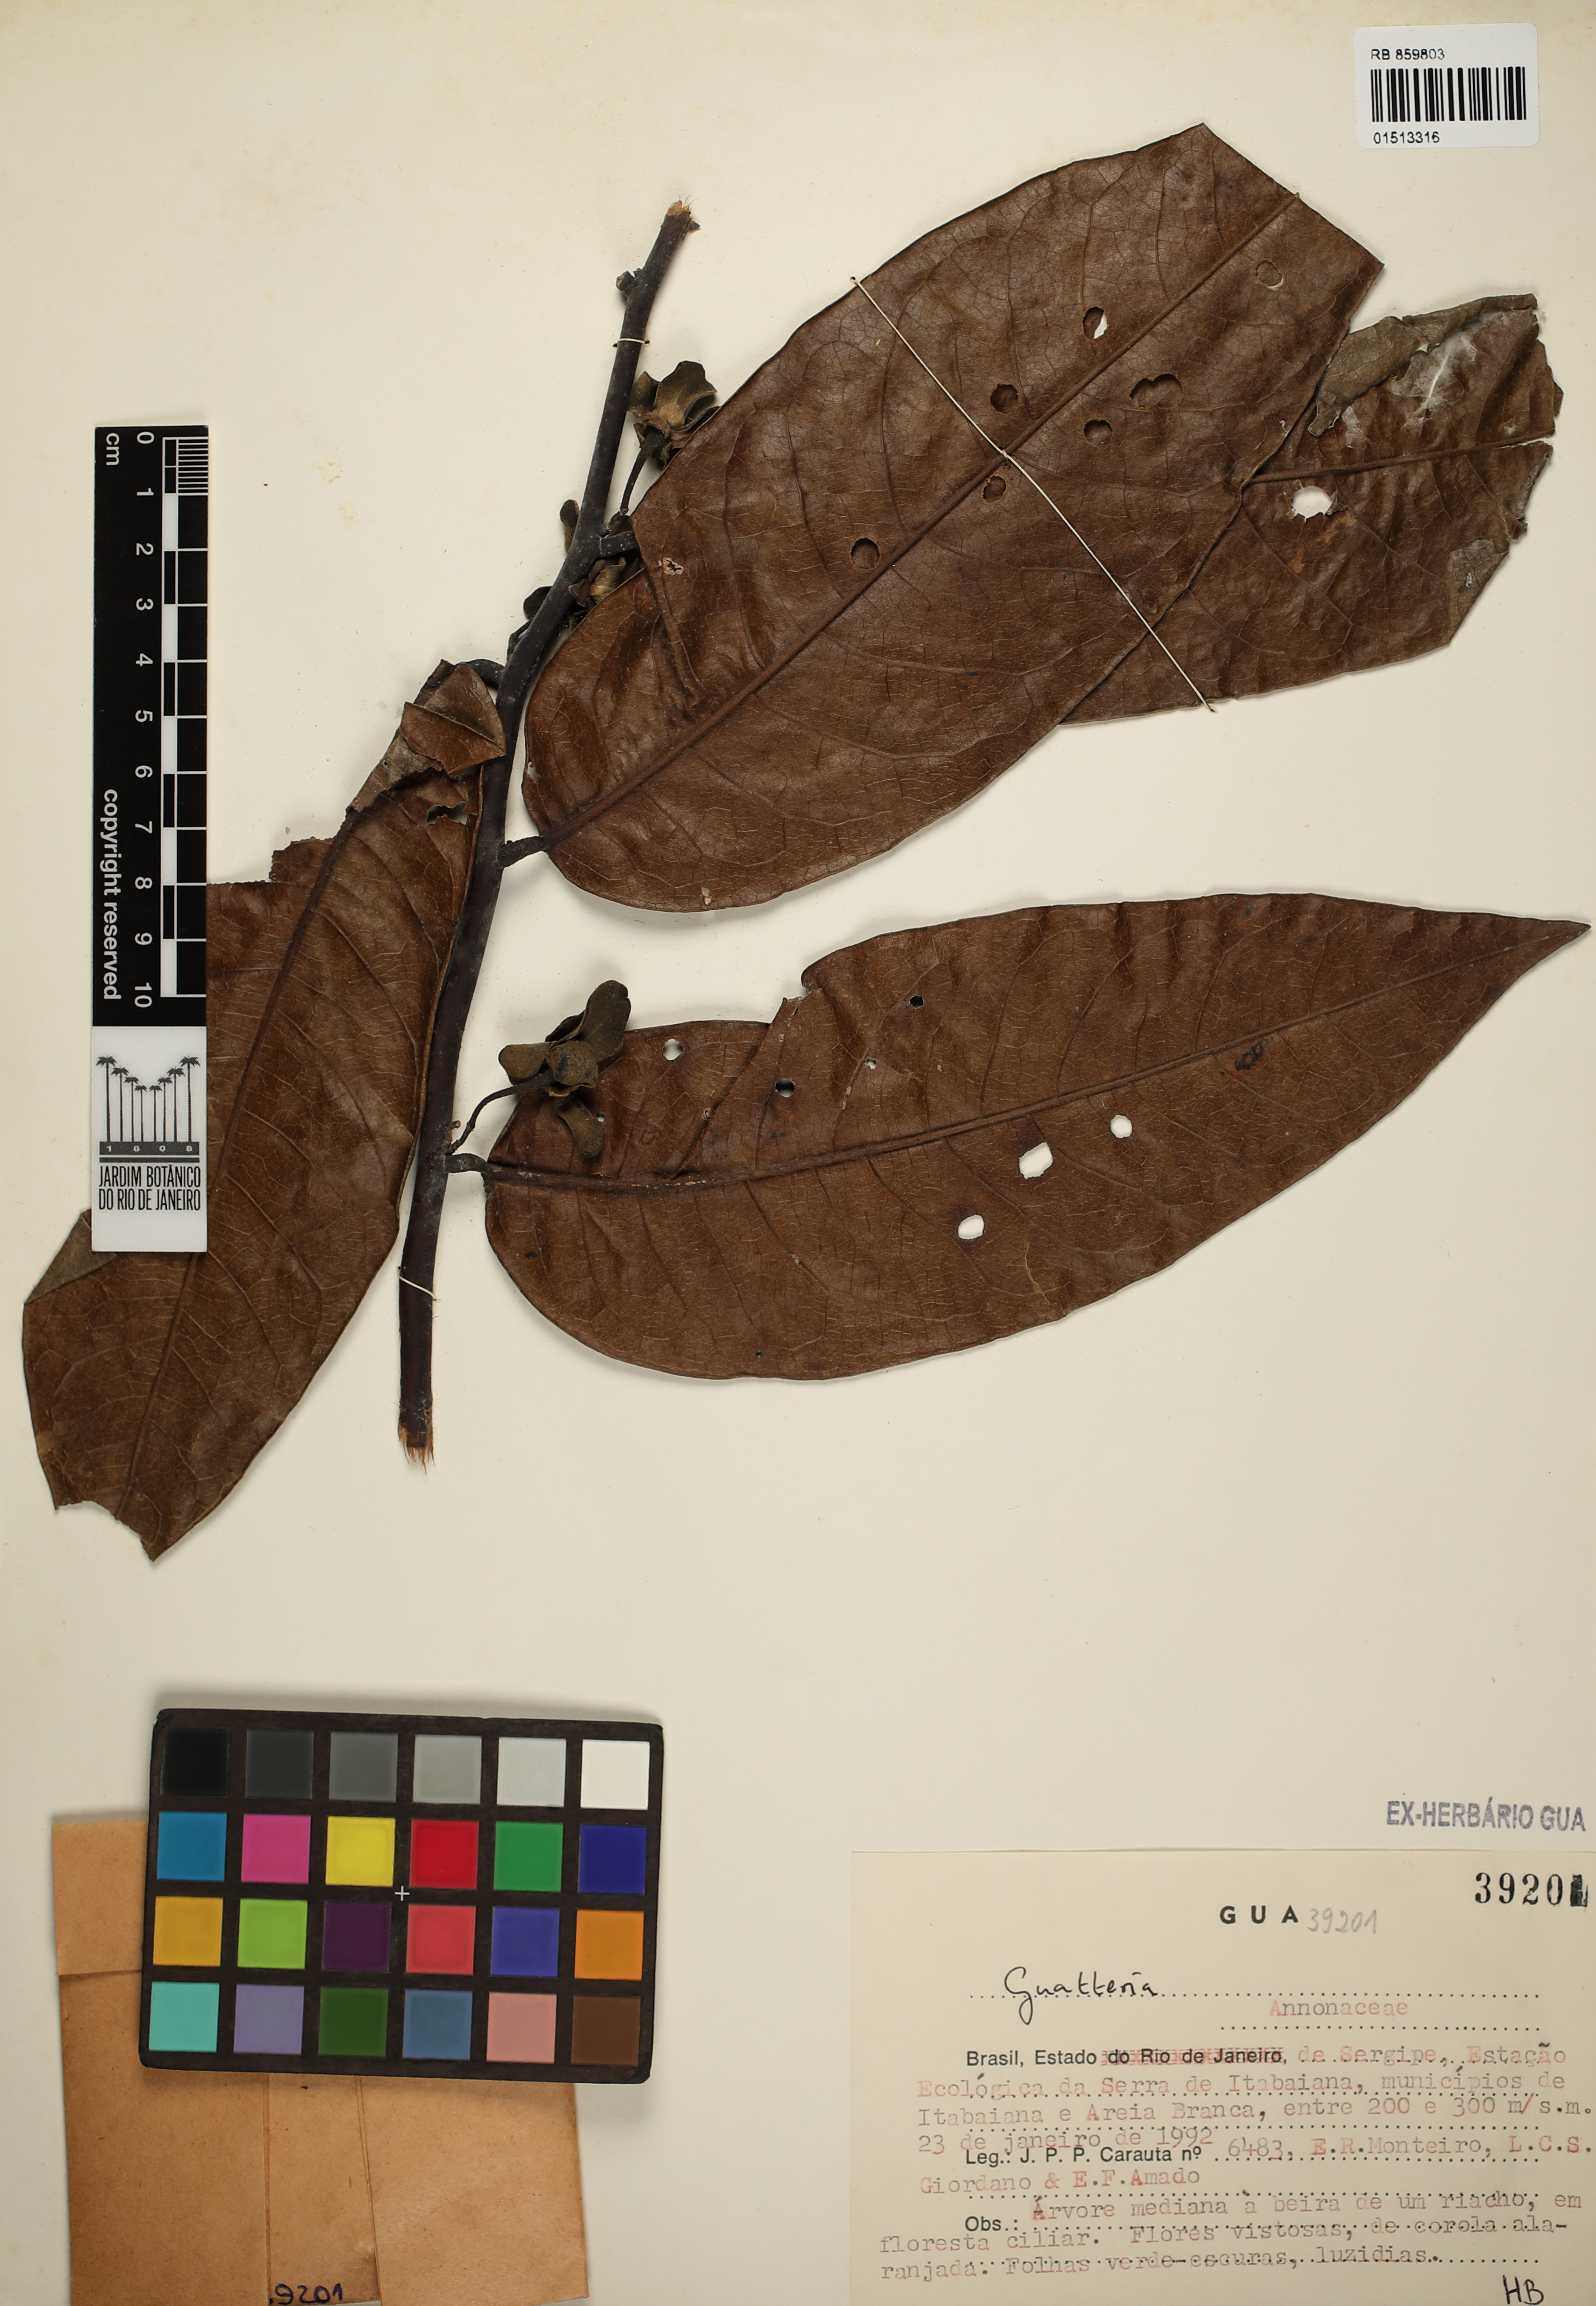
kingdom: Plantae
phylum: Tracheophyta
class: Magnoliopsida
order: Magnoliales
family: Annonaceae
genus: Guatteria
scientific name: Guatteria
